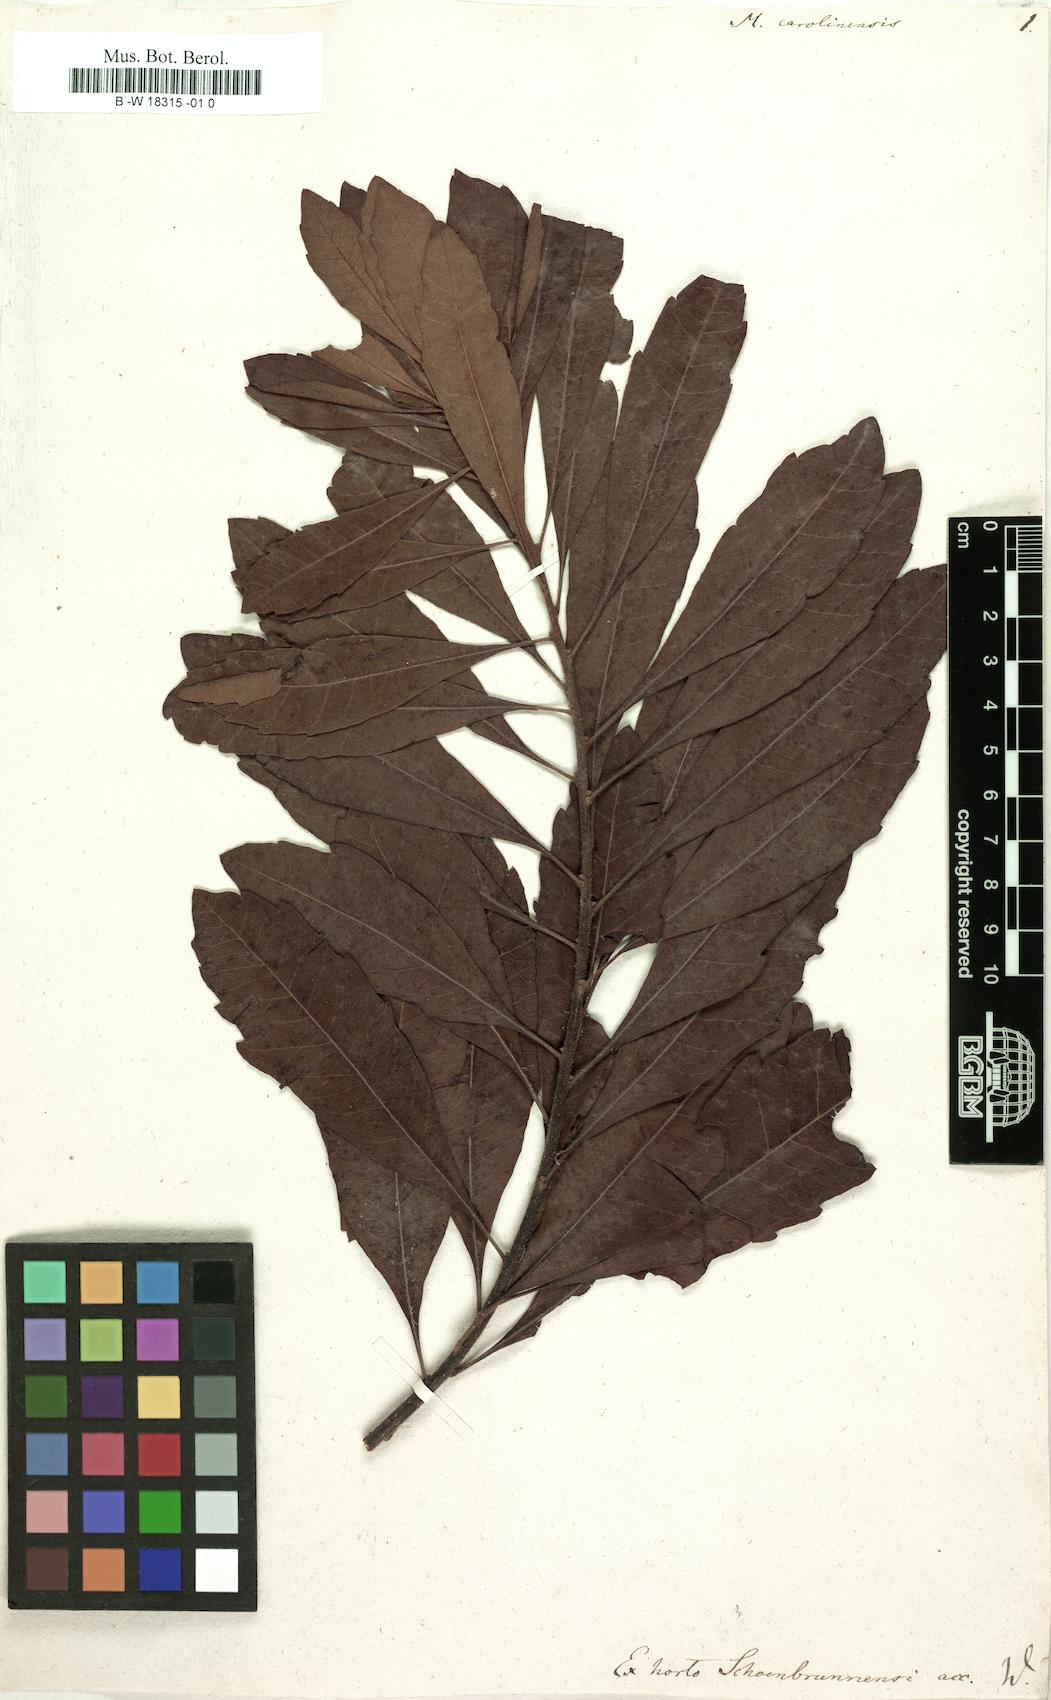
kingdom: Plantae
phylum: Tracheophyta
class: Magnoliopsida
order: Fagales
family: Myricaceae
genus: Morella
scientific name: Morella caroliniensis
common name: Evergreen bayberry
